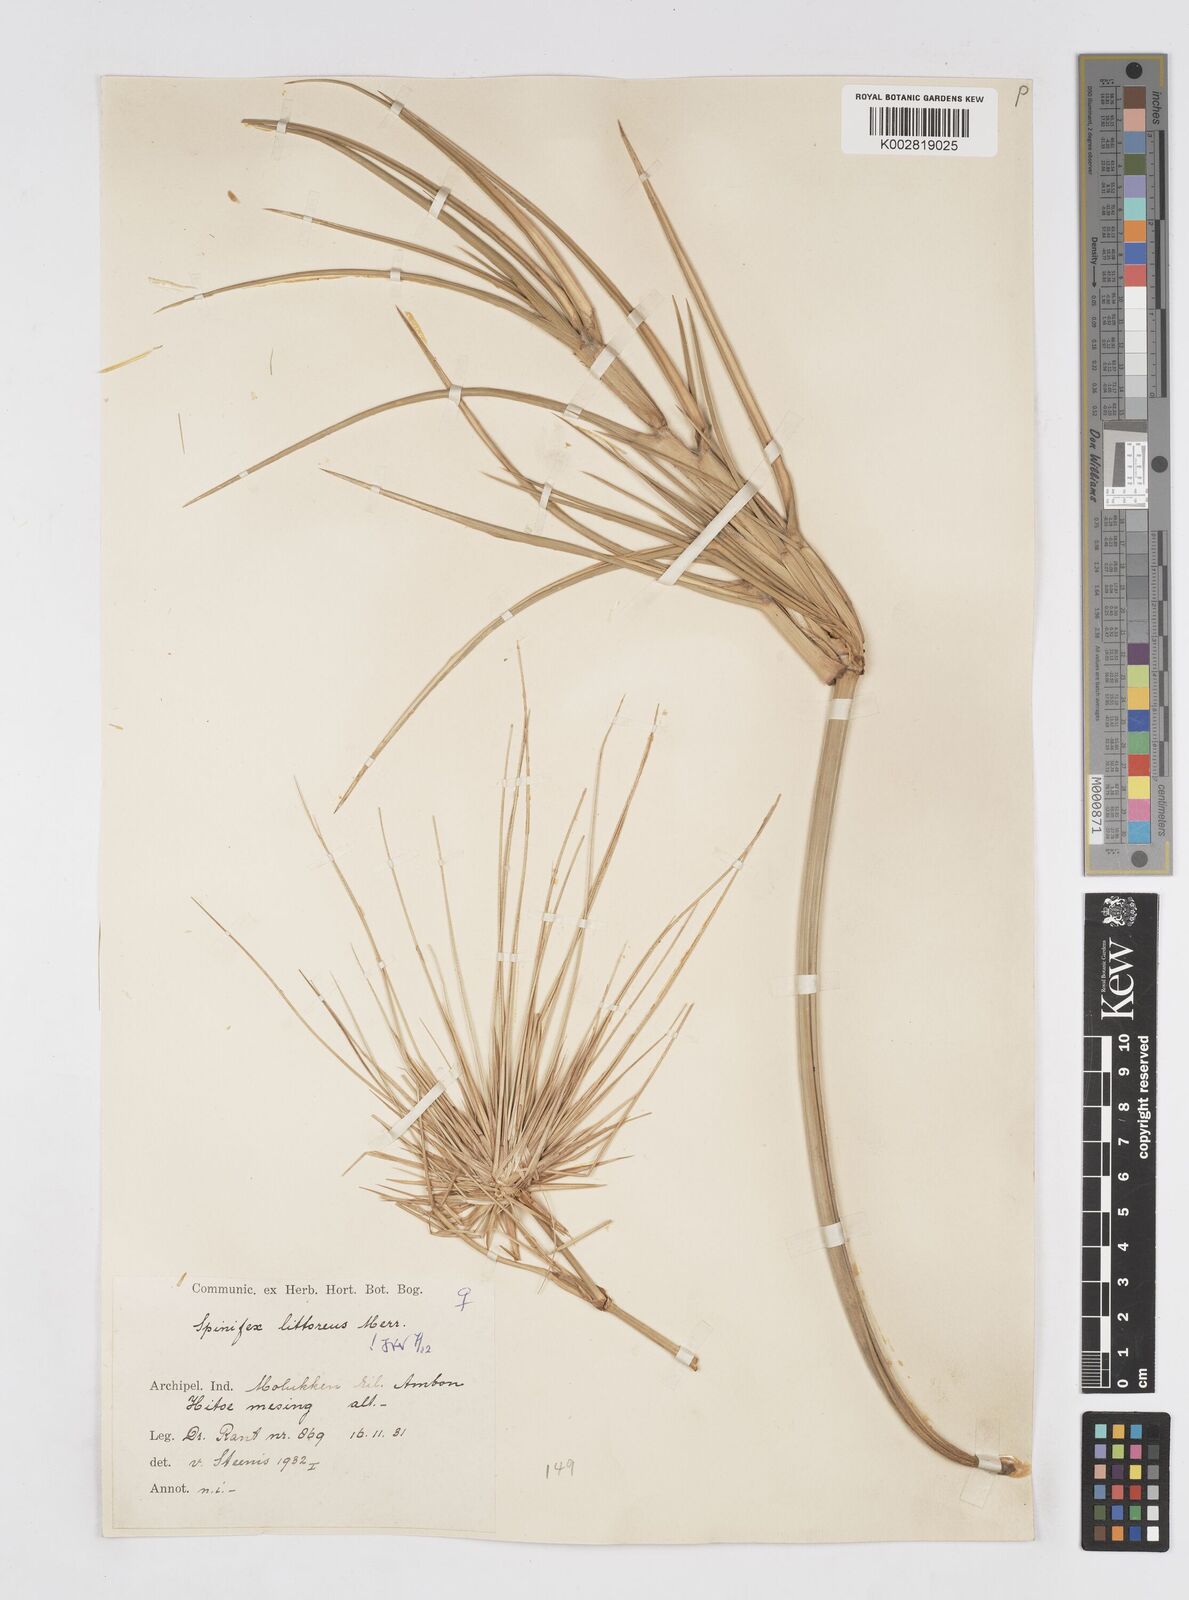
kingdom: Plantae
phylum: Tracheophyta
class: Liliopsida
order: Poales
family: Poaceae
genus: Spinifex
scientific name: Spinifex littoreus
